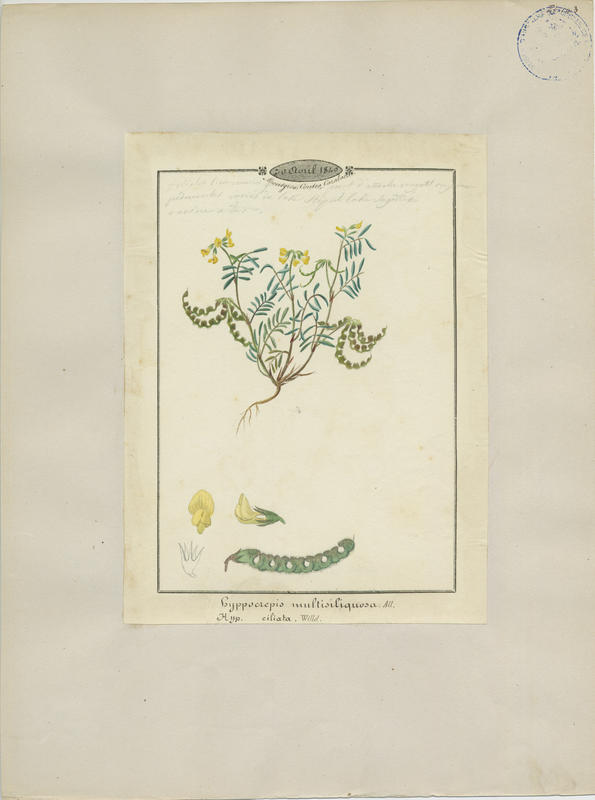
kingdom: Plantae
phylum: Tracheophyta
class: Magnoliopsida
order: Fabales
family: Fabaceae
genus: Hippocrepis
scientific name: Hippocrepis multisiliquosa
